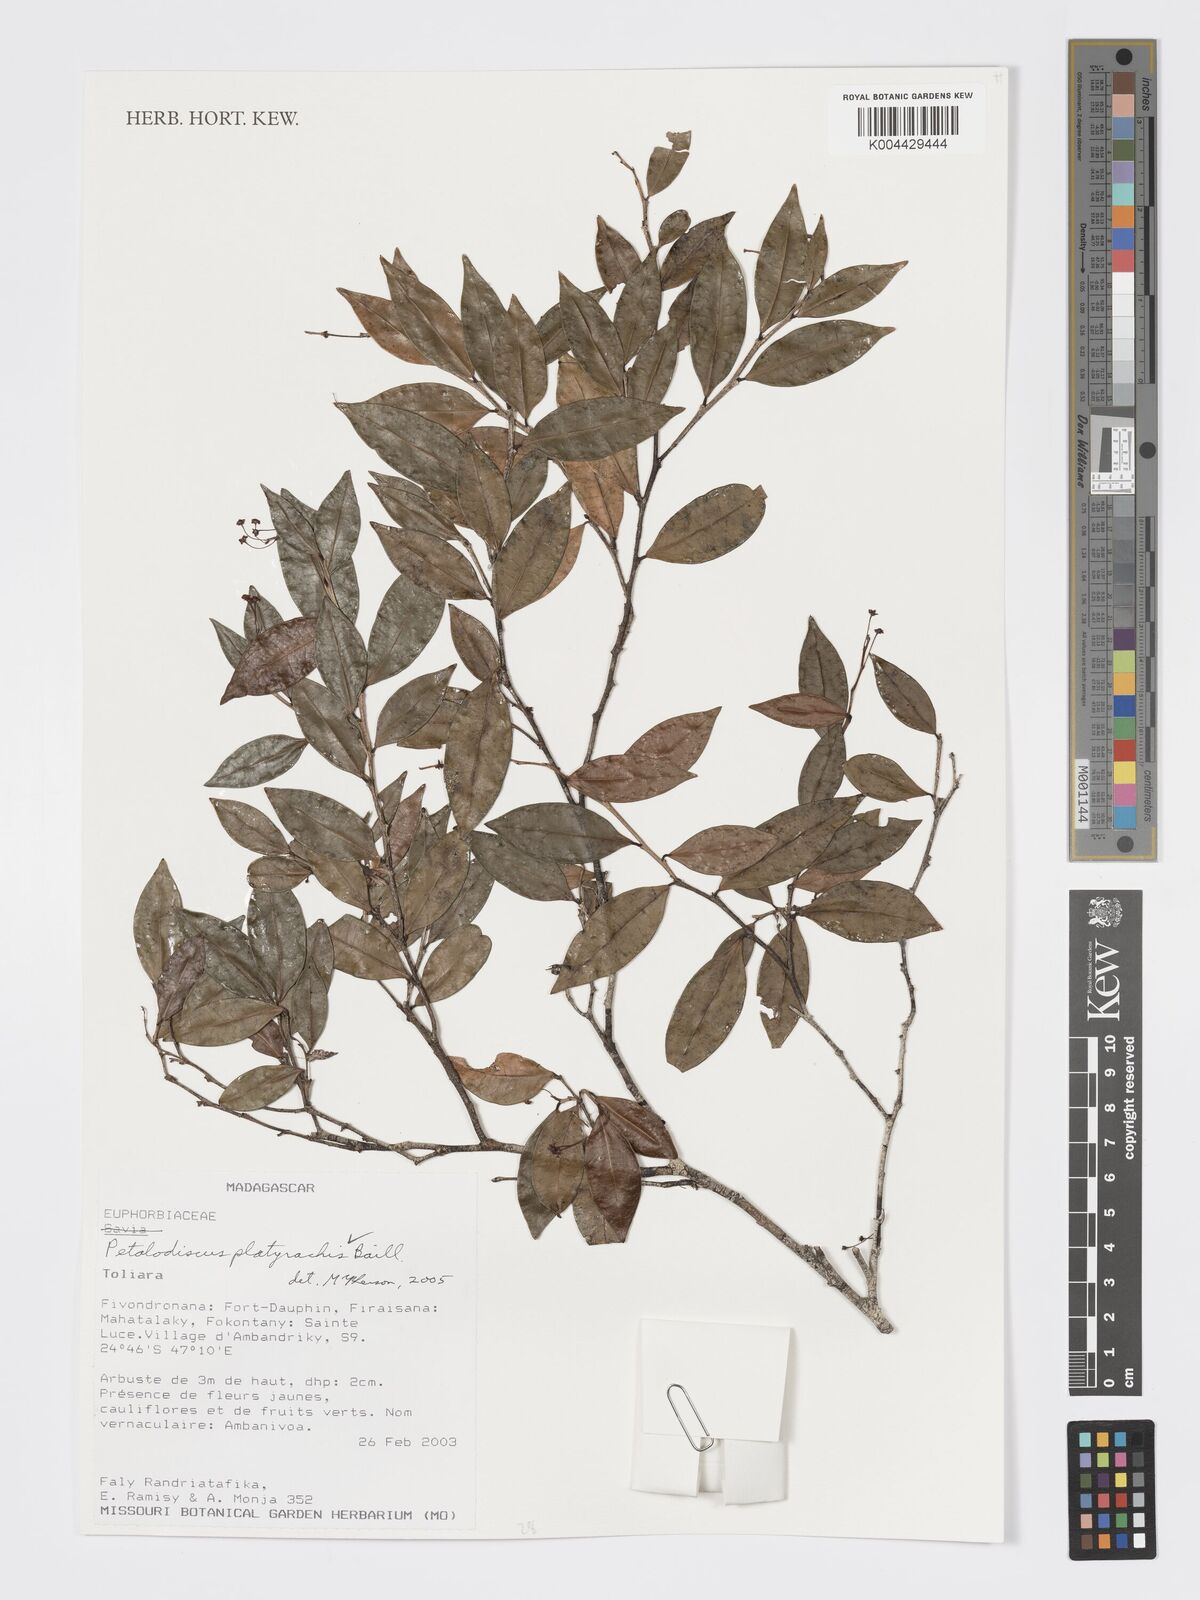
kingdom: Plantae
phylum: Tracheophyta
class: Magnoliopsida
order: Malpighiales
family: Phyllanthaceae
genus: Wielandia
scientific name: Wielandia platyrachis
